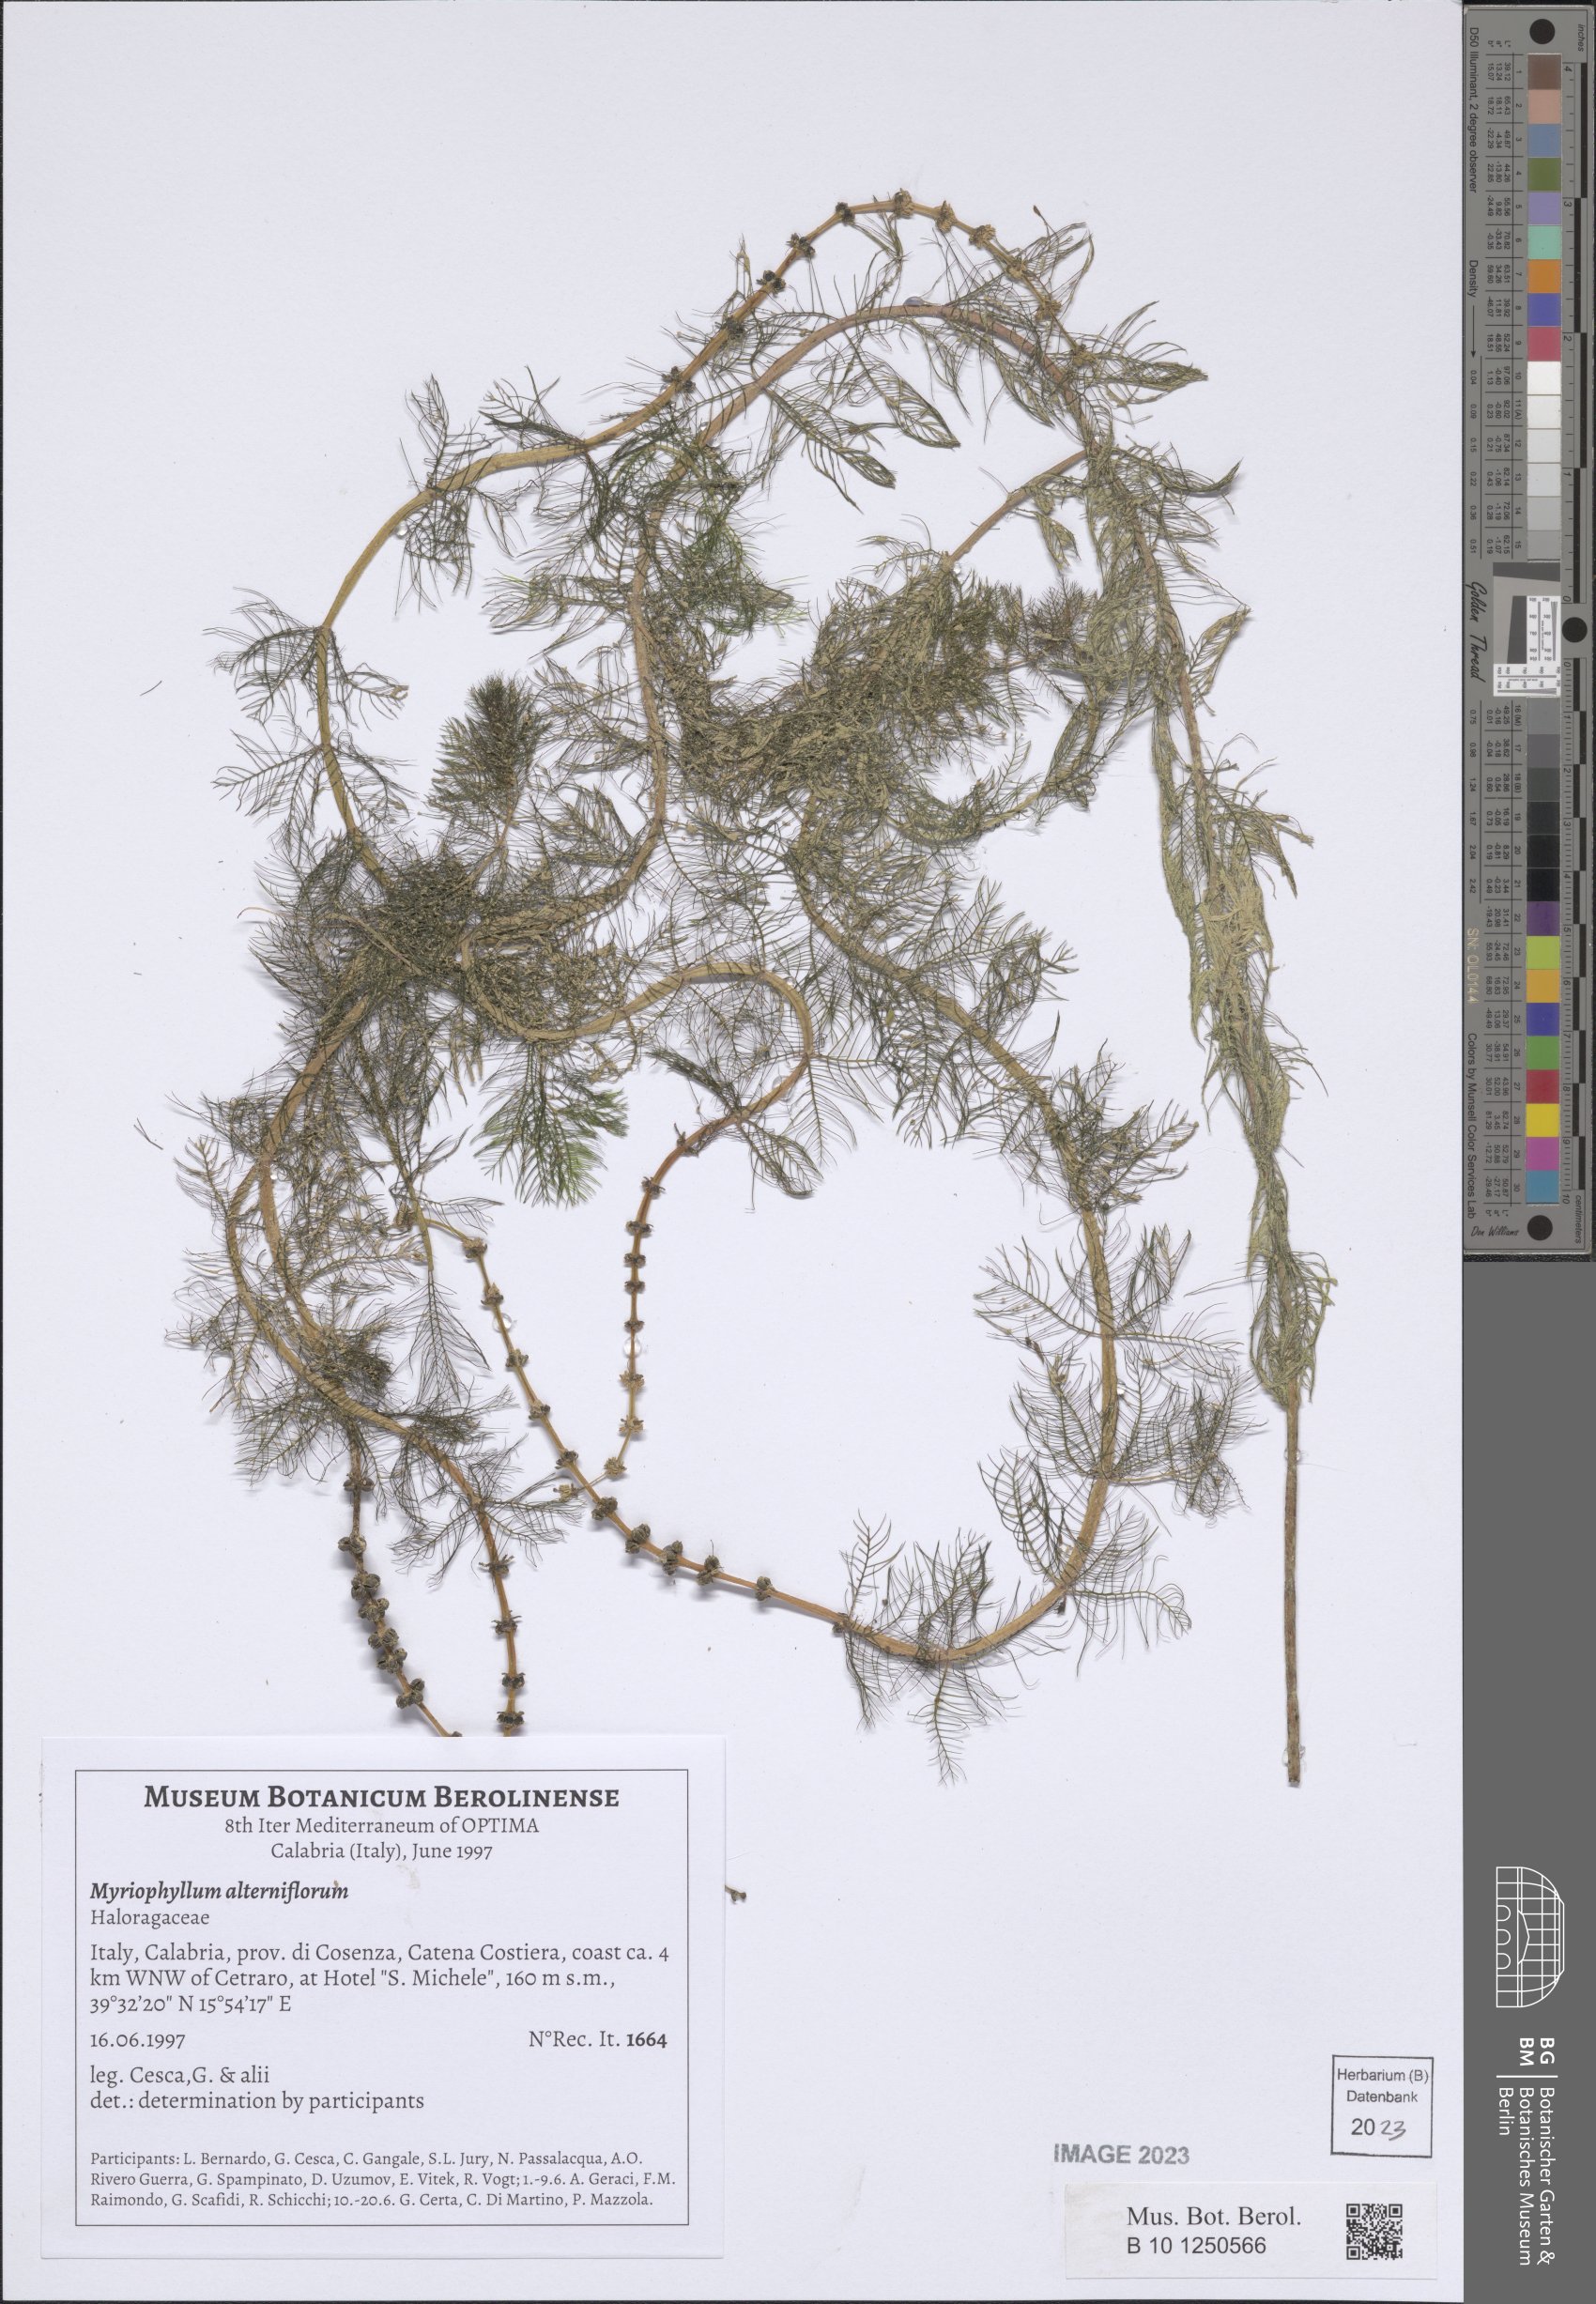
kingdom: Plantae
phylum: Tracheophyta
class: Magnoliopsida
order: Saxifragales
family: Haloragaceae
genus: Myriophyllum
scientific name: Myriophyllum alterniflorum
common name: Alternate water-milfoil
